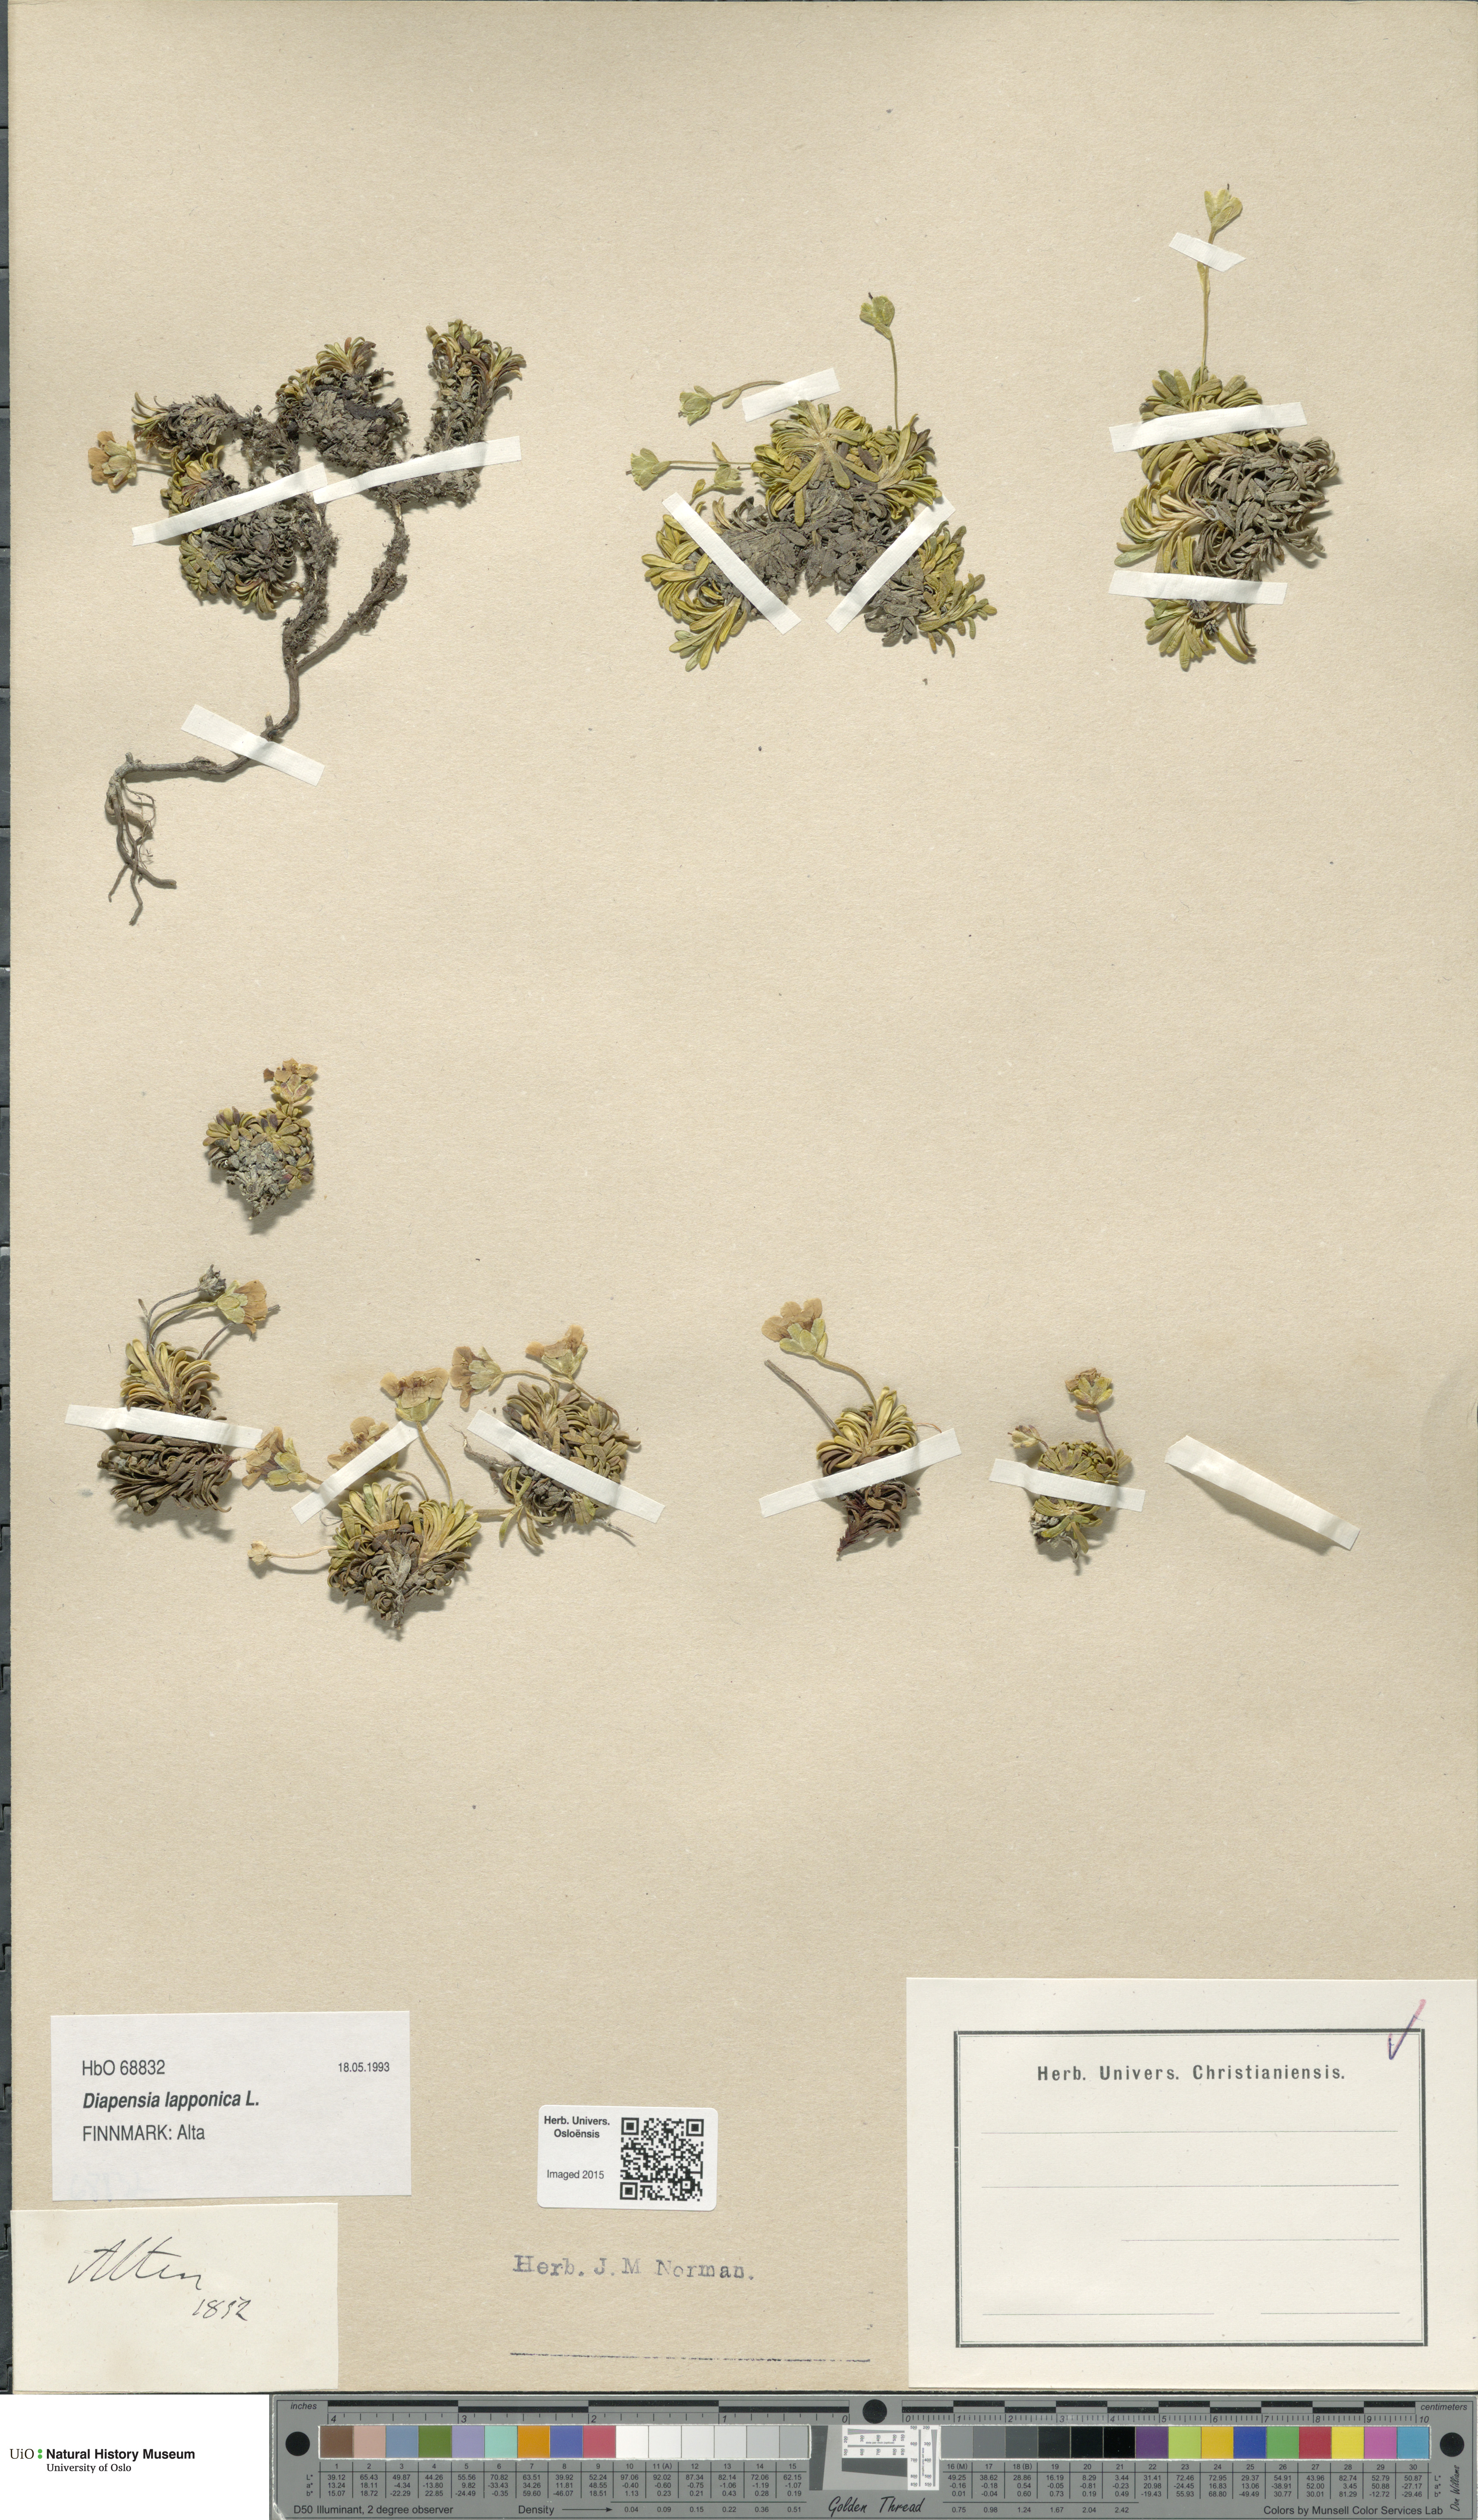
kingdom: Plantae
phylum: Tracheophyta
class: Magnoliopsida
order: Ericales
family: Diapensiaceae
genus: Diapensia
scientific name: Diapensia lapponica
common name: Diapensia
